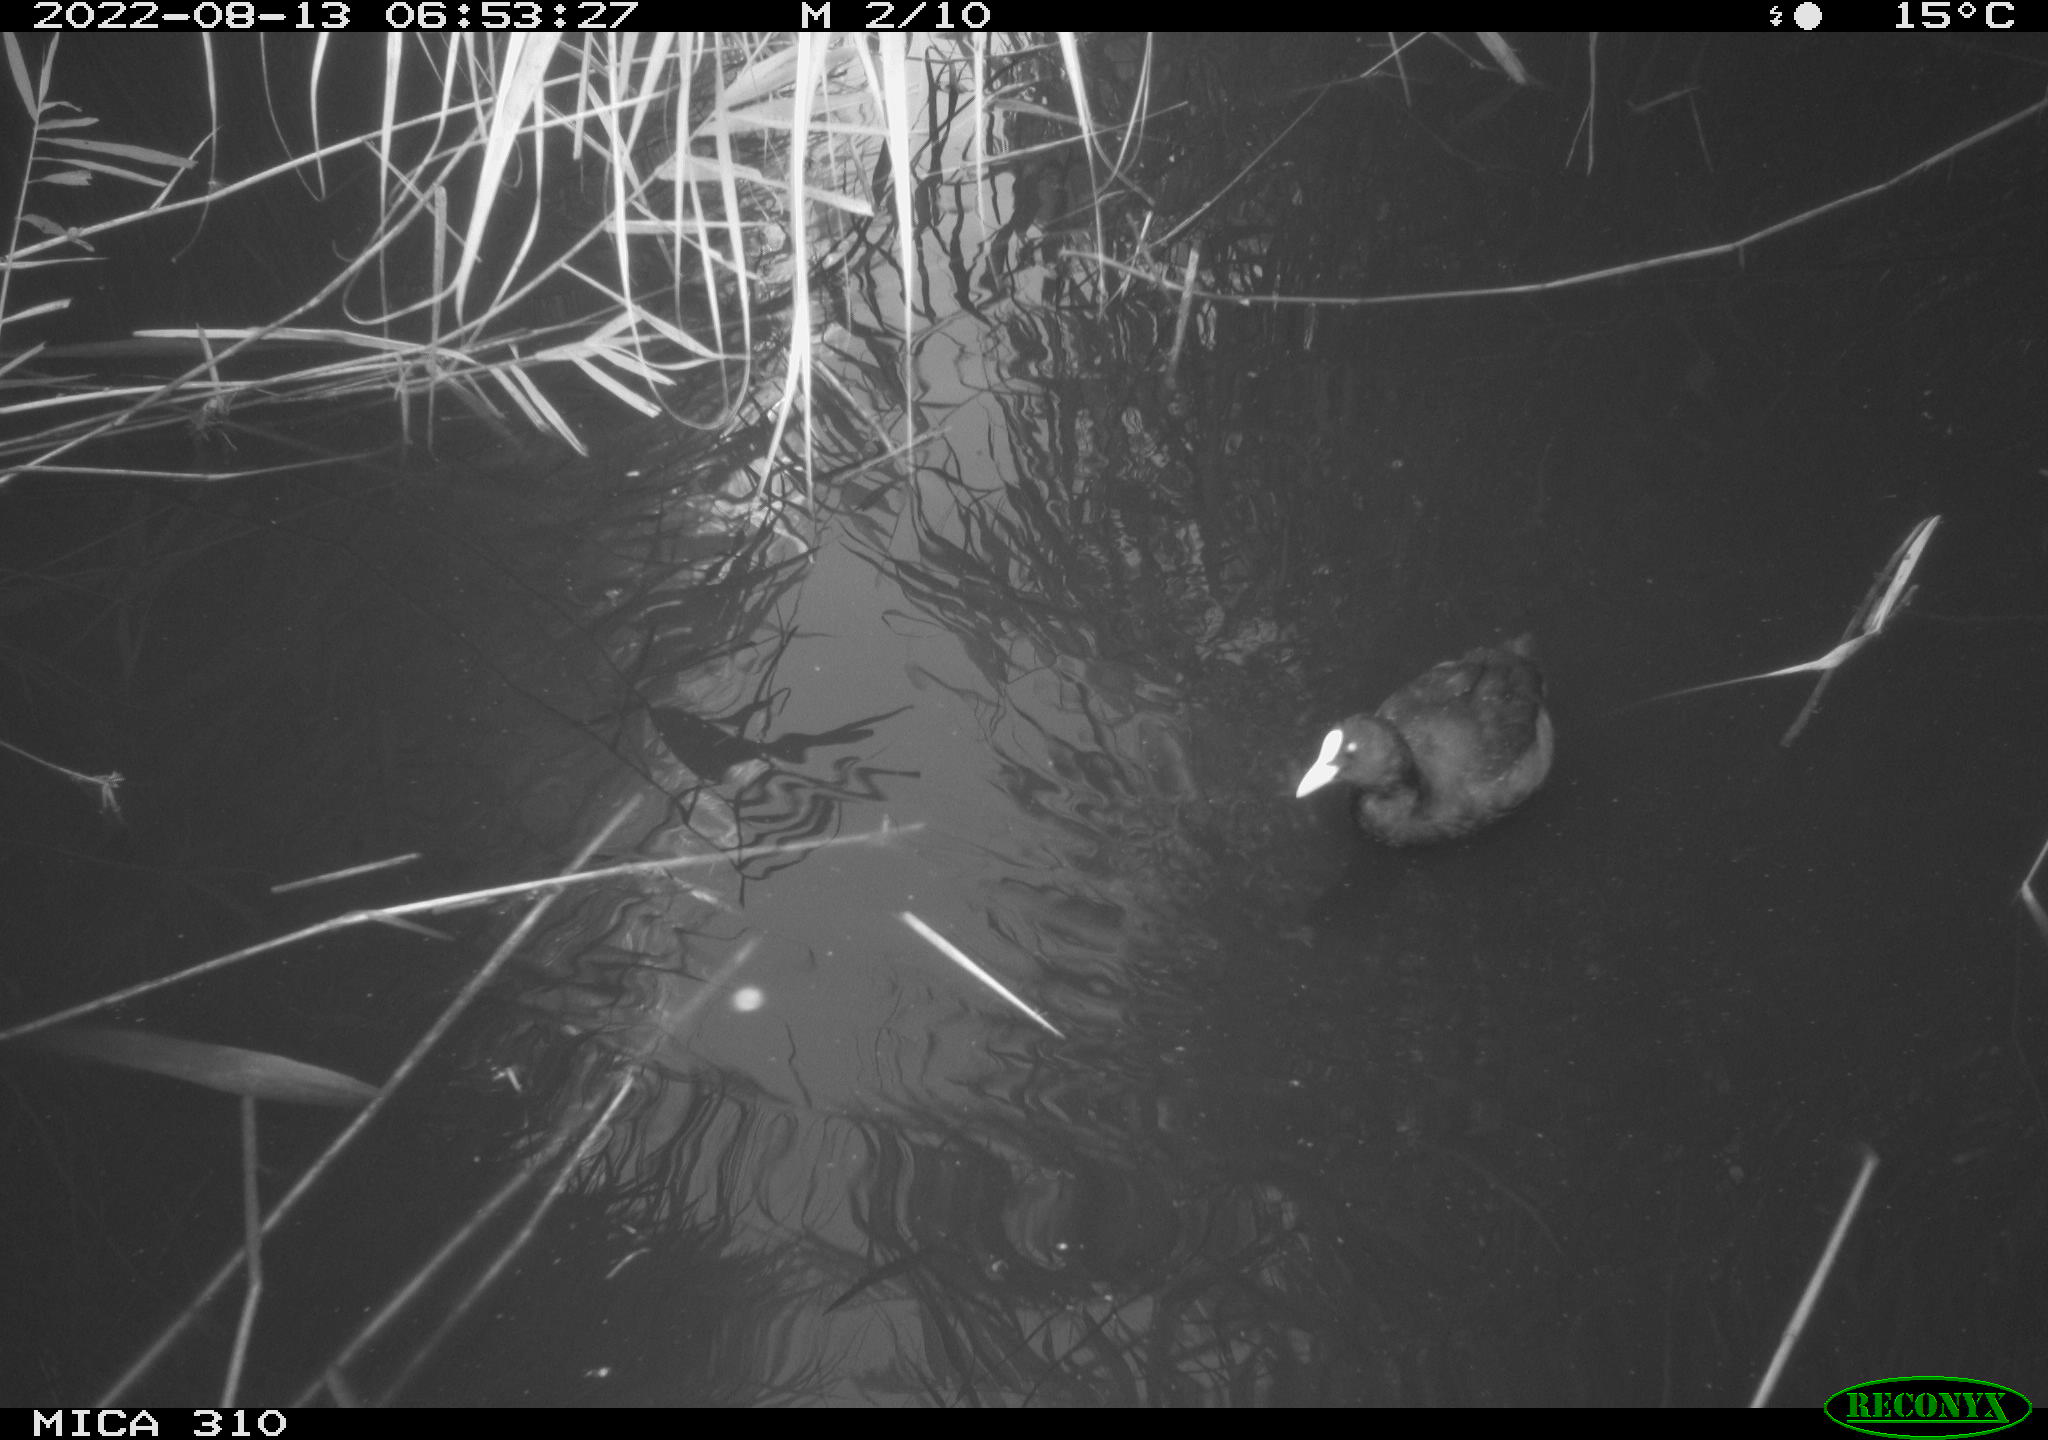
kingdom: Animalia
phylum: Chordata
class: Aves
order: Gruiformes
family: Rallidae
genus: Fulica
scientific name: Fulica atra
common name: Eurasian coot
